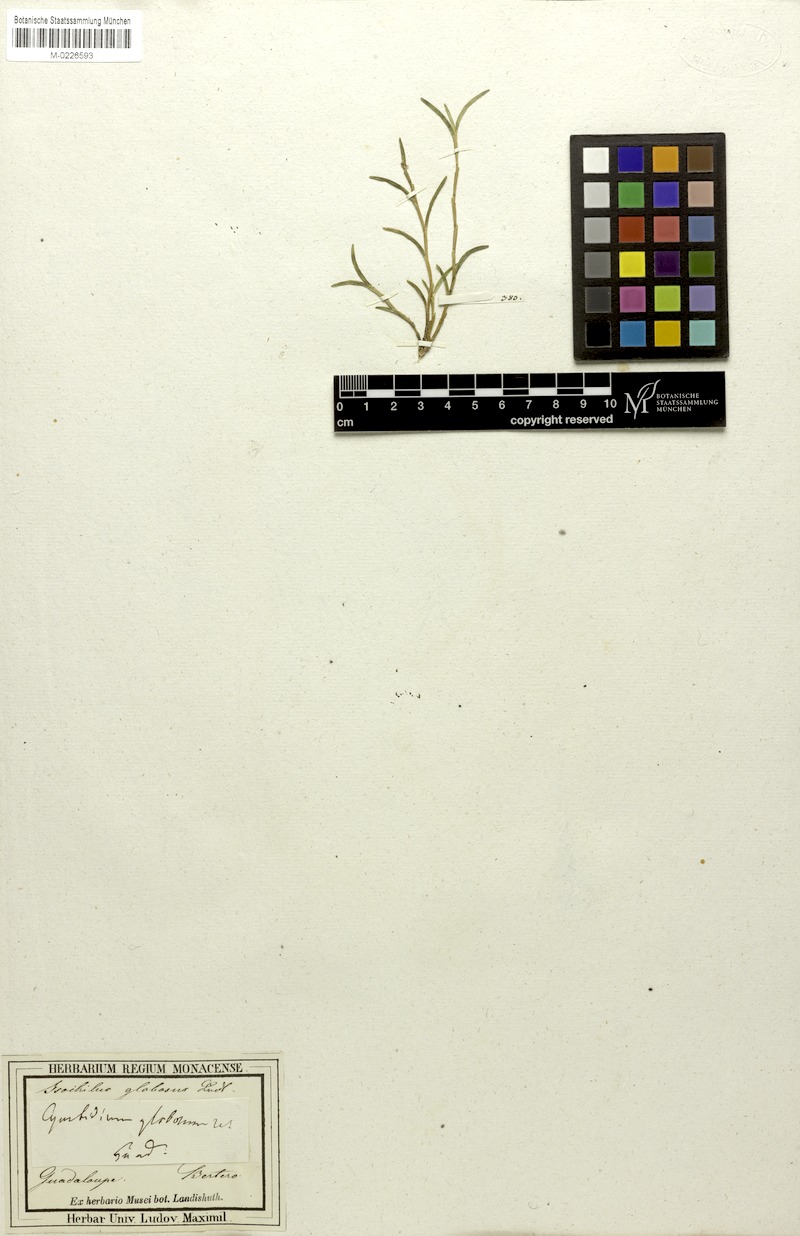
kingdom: Plantae
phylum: Tracheophyta
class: Liliopsida
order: Asparagales
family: Orchidaceae
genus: Jacquiniella
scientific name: Jacquiniella globosa
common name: Redblotch tufted orchid
